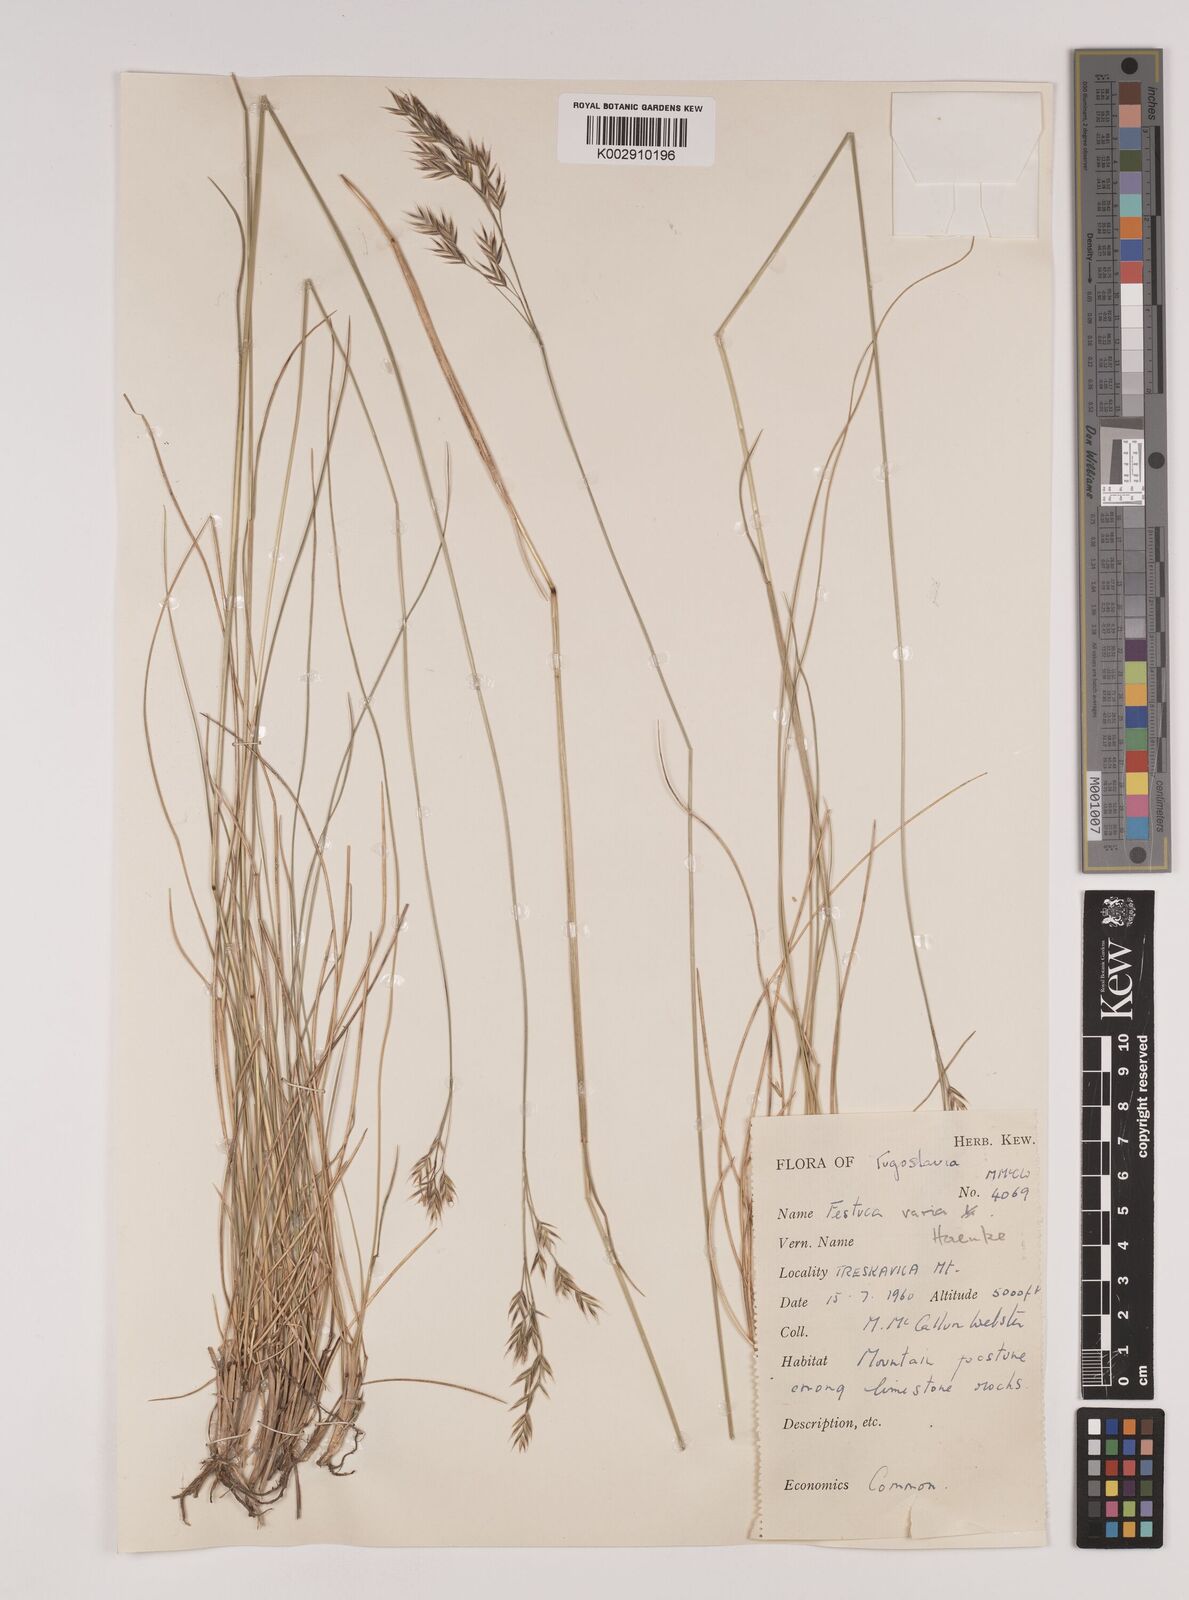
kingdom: Plantae
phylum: Tracheophyta
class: Liliopsida
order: Poales
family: Poaceae
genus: Festuca
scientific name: Festuca varia
